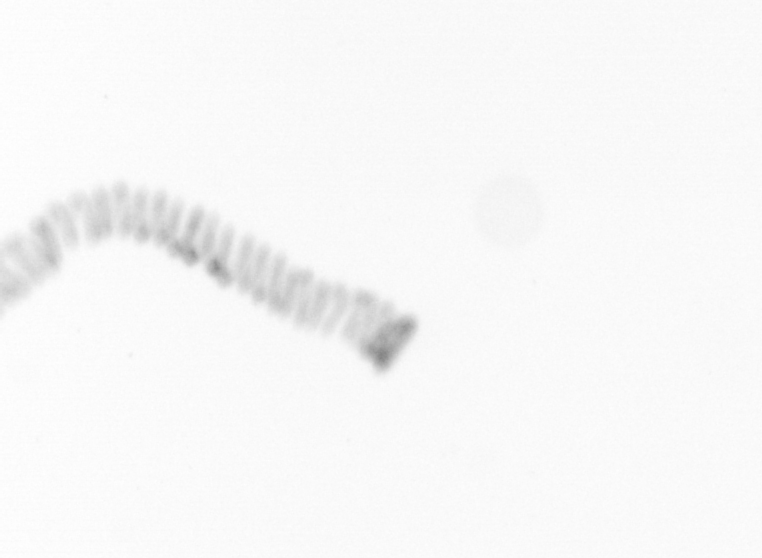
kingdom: Chromista
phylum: Ochrophyta
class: Bacillariophyceae
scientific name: Bacillariophyceae
